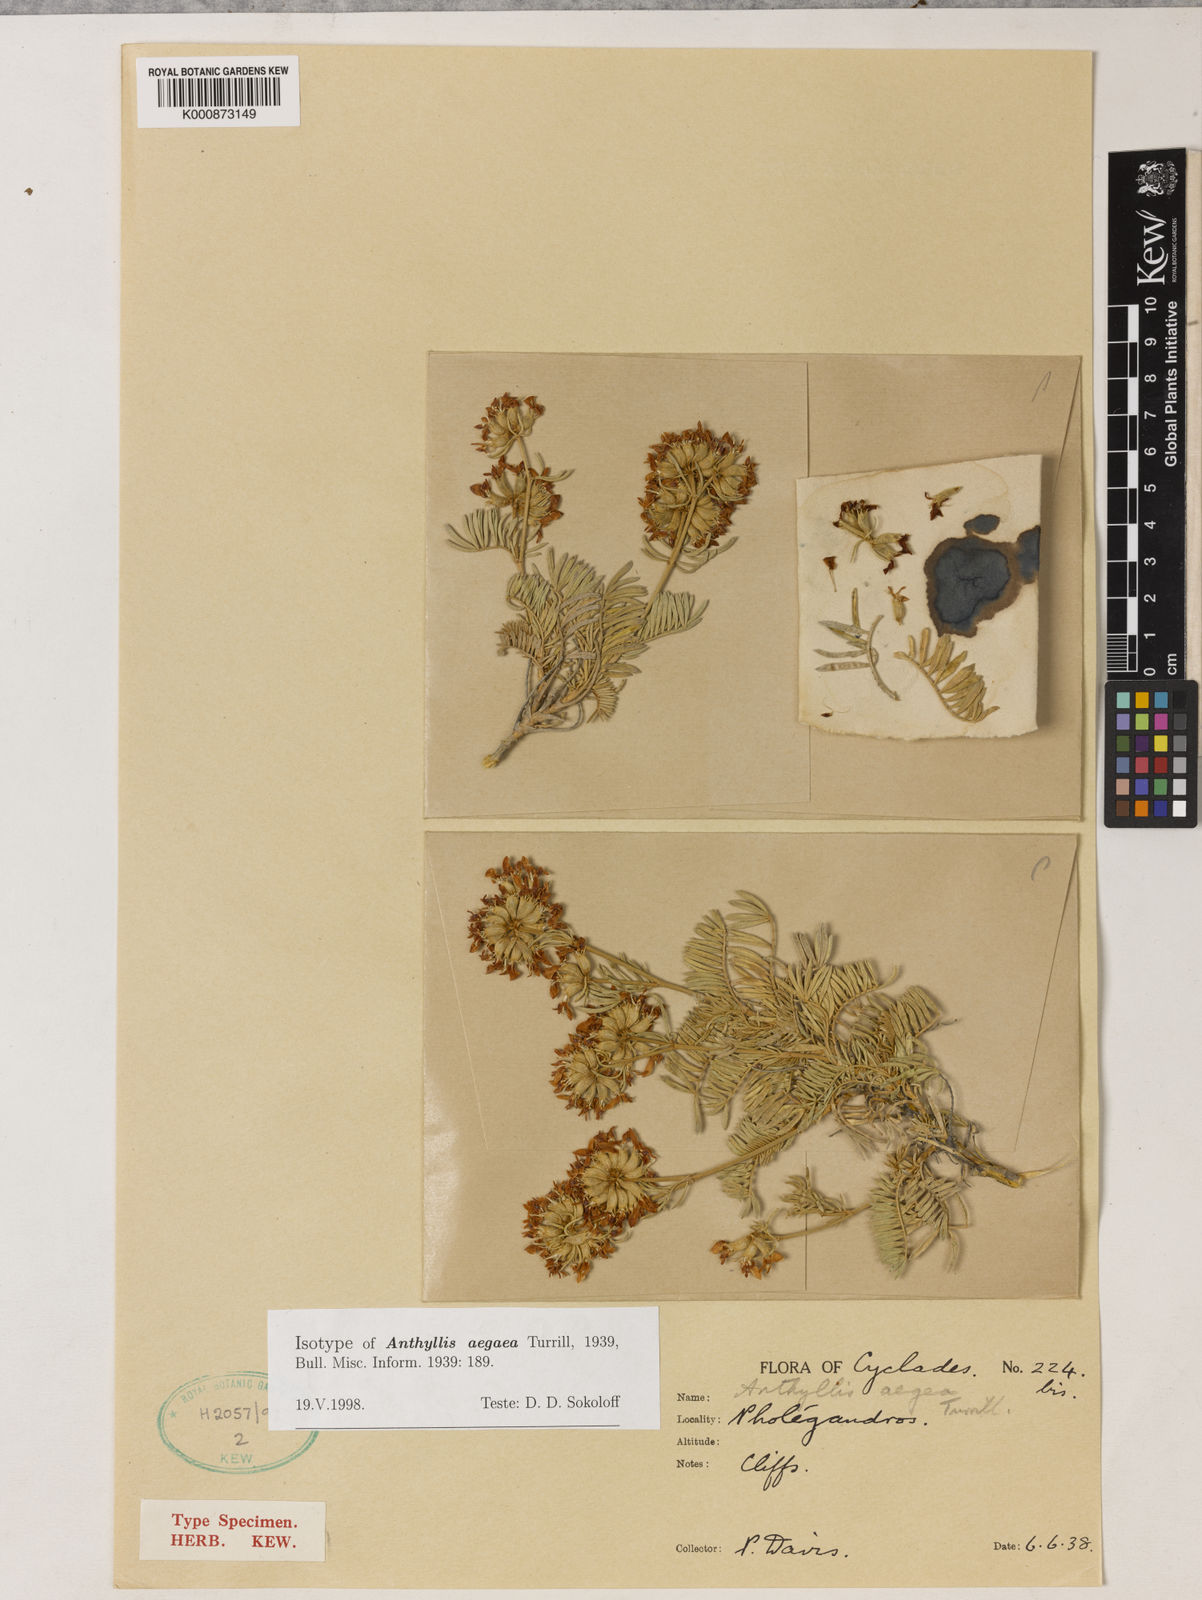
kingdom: Plantae
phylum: Tracheophyta
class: Magnoliopsida
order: Fabales
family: Fabaceae
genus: Anthyllis
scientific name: Anthyllis
